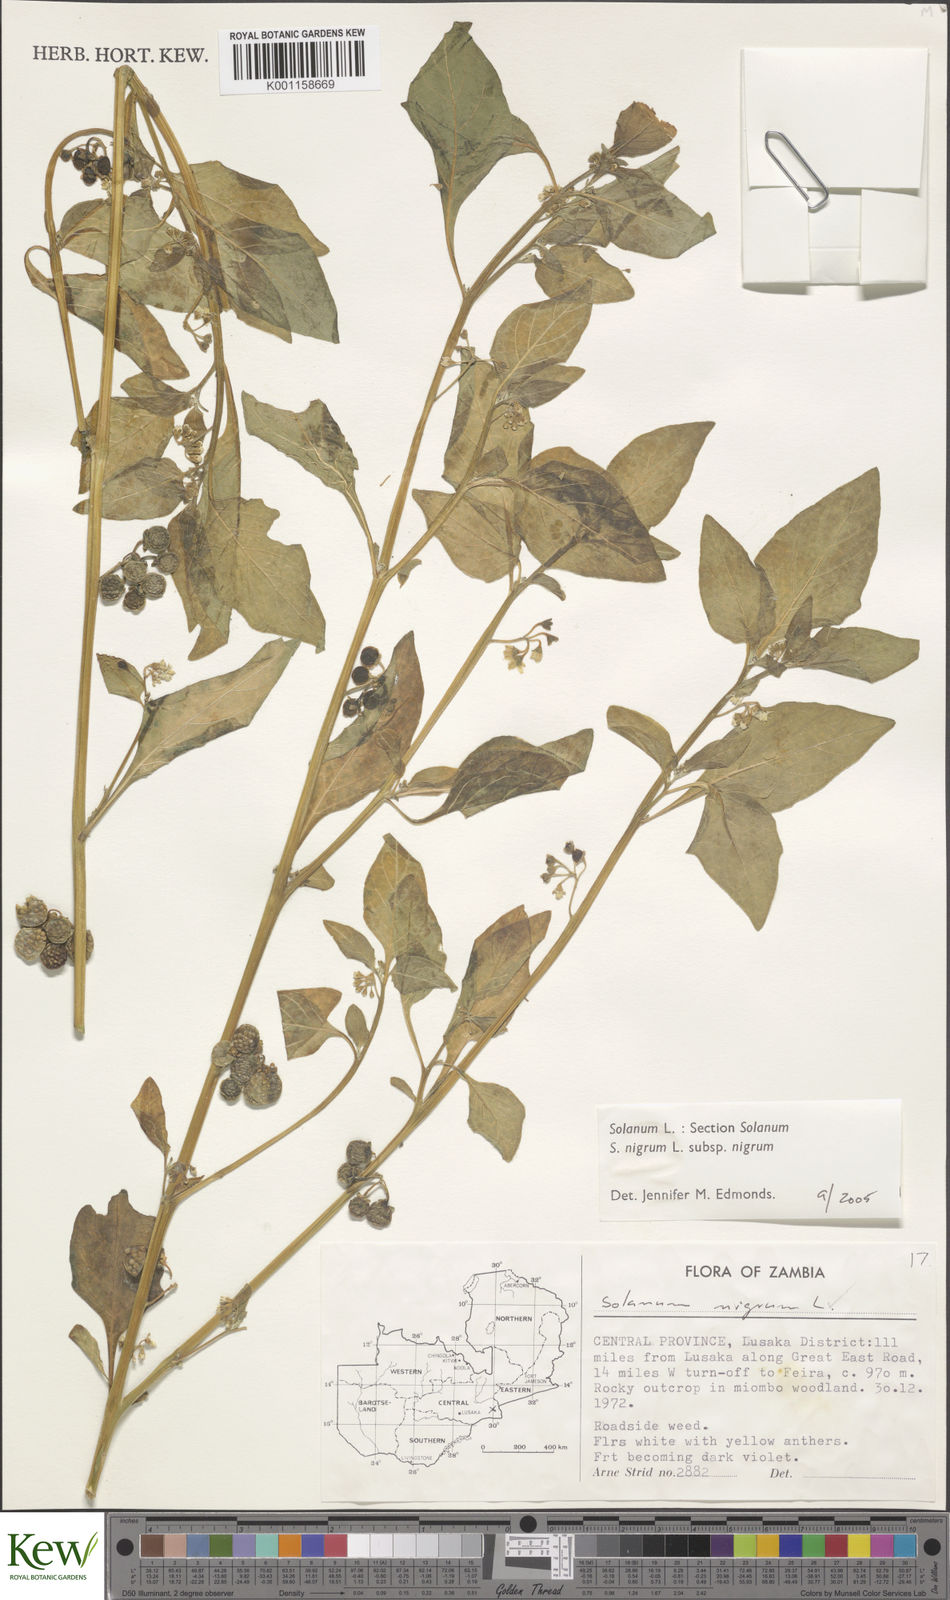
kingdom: Plantae
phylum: Tracheophyta
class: Magnoliopsida
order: Solanales
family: Solanaceae
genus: Solanum
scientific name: Solanum nigrum
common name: Black nightshade
